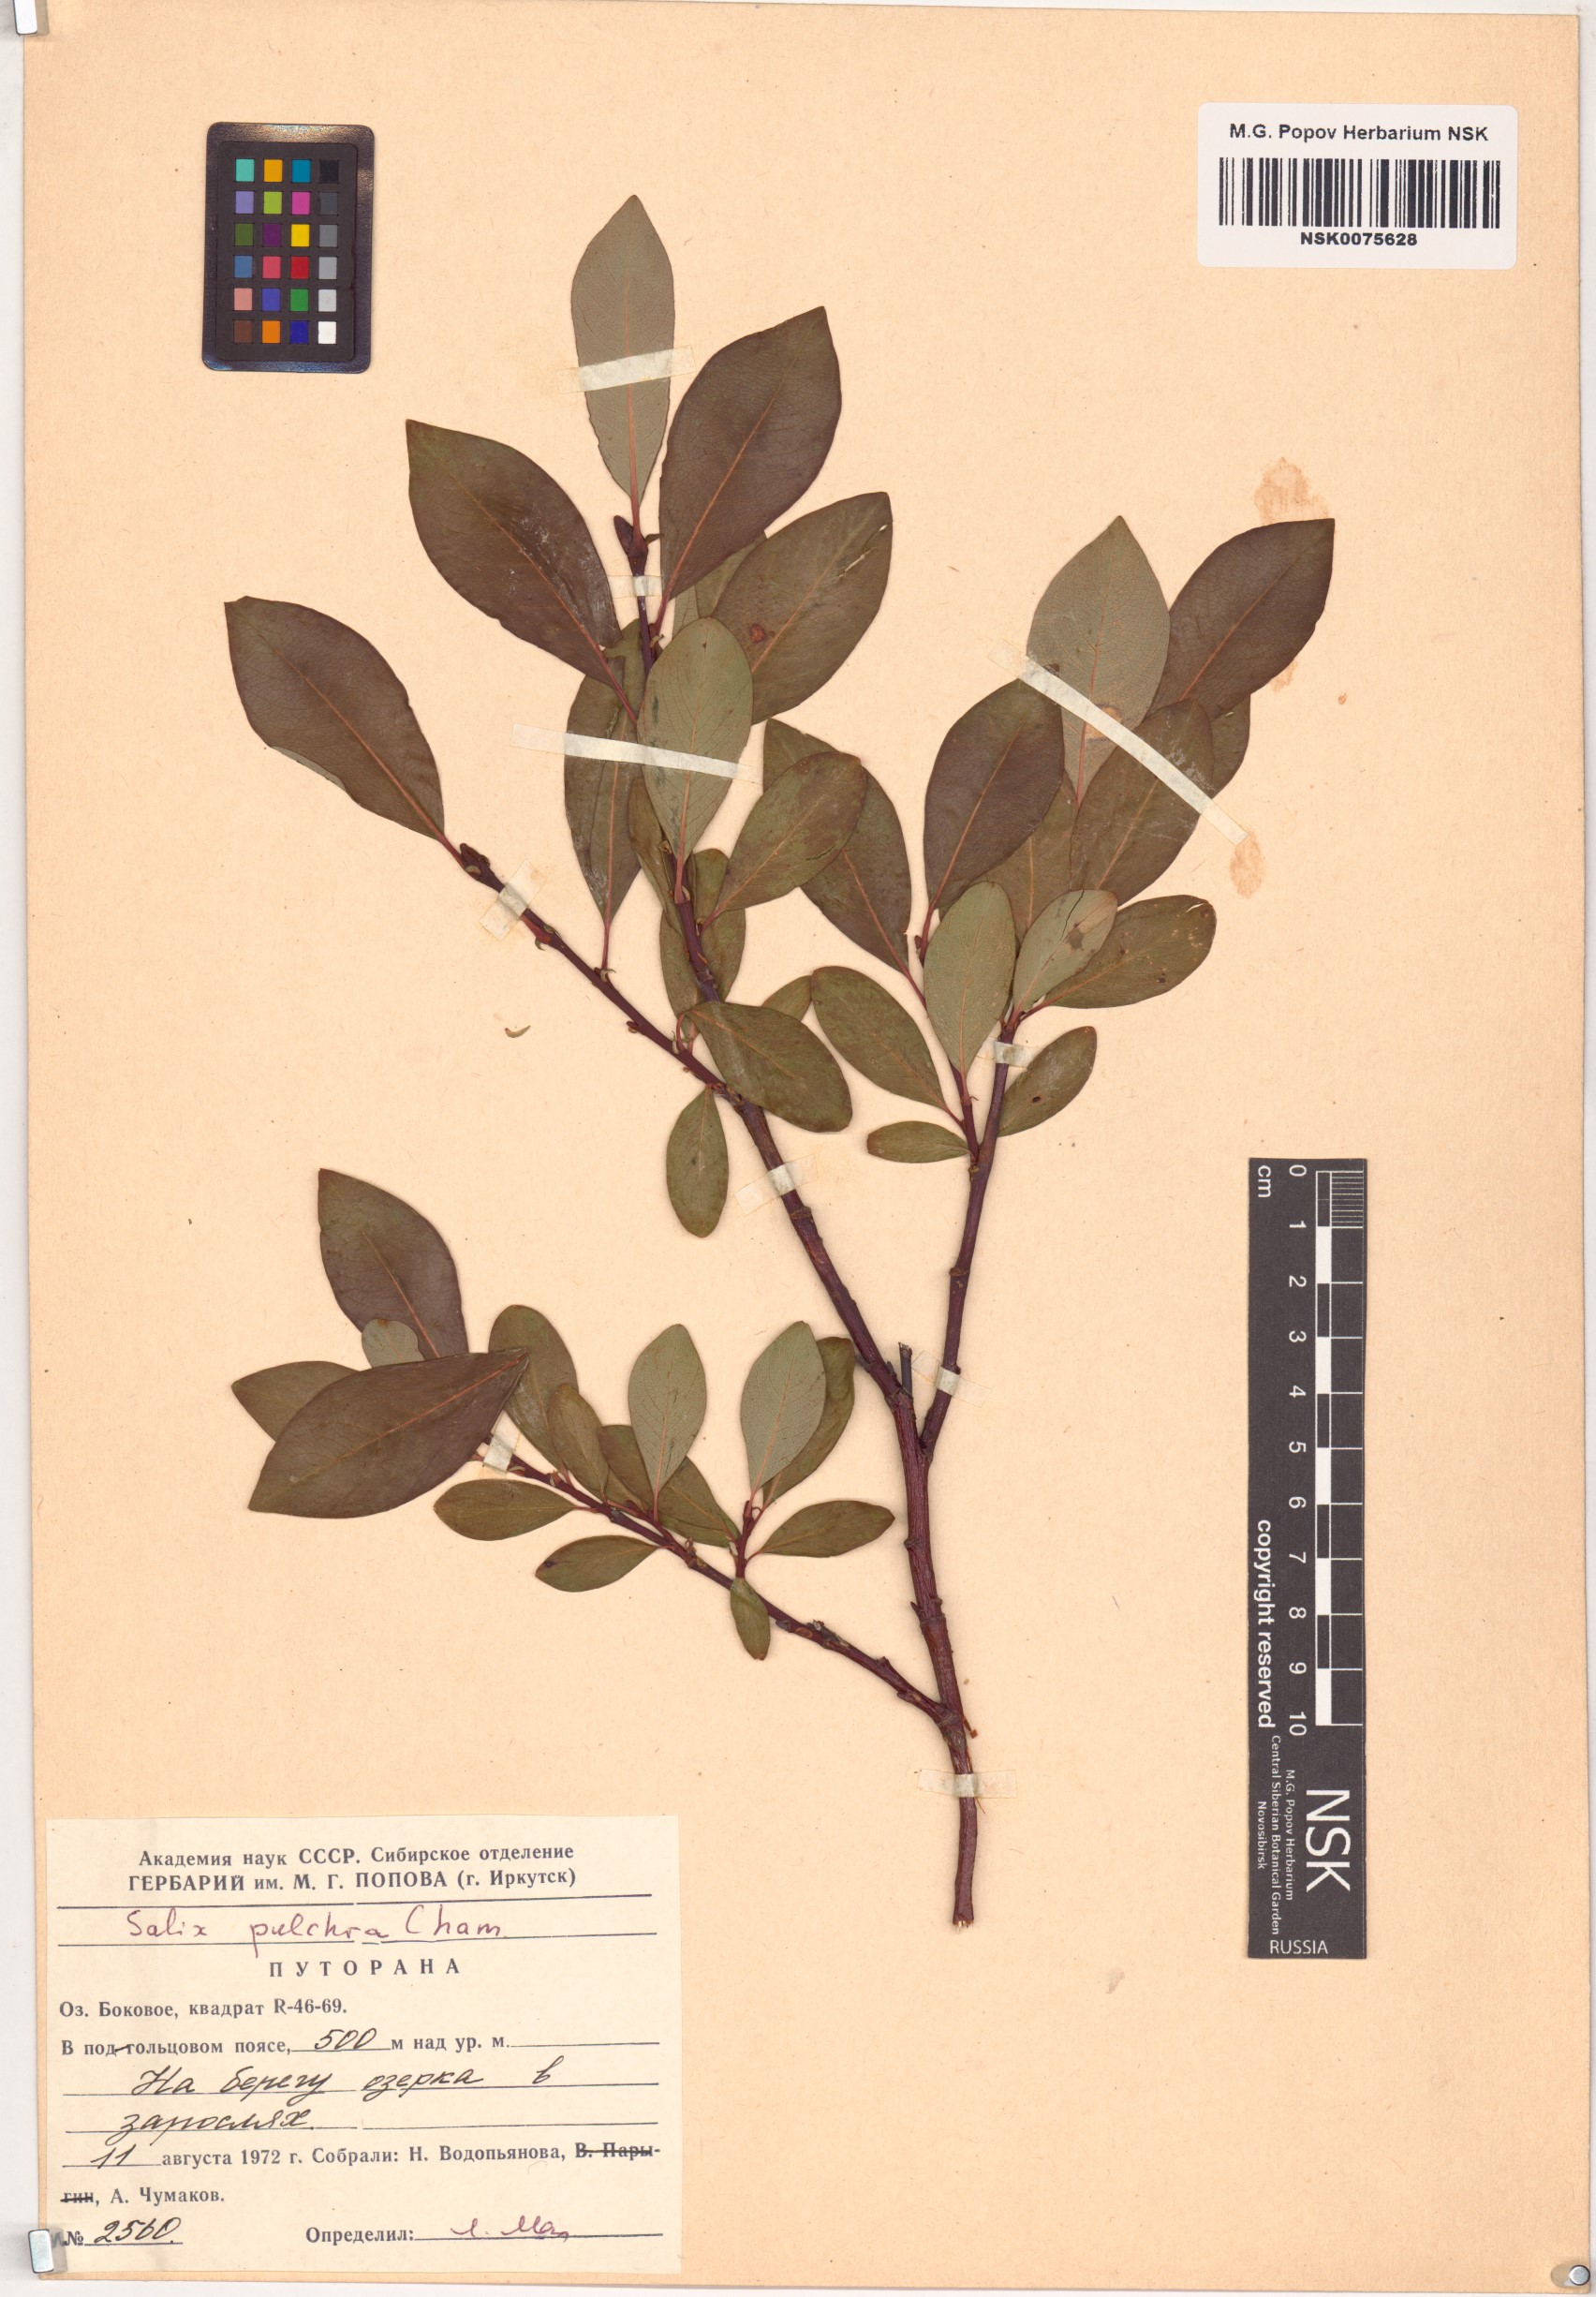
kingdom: Plantae
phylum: Tracheophyta
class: Magnoliopsida
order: Malpighiales
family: Salicaceae
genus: Salix
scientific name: Salix pulchra
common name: Diamond-leaved willow
